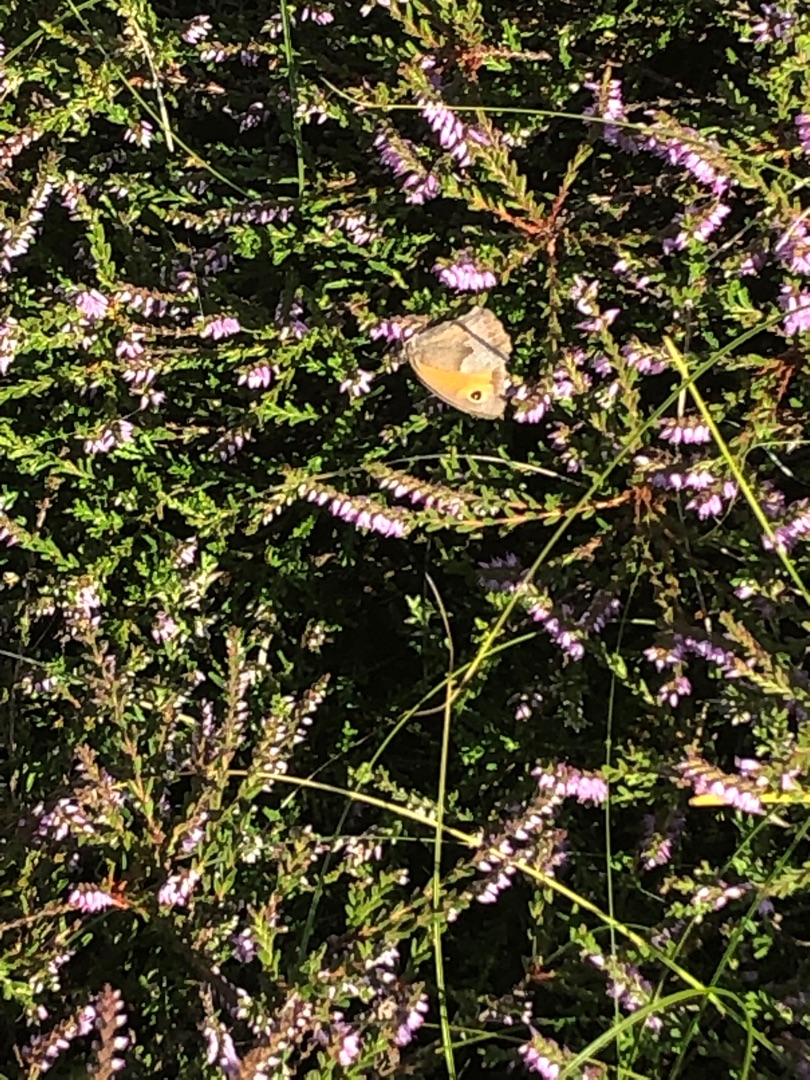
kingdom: Animalia
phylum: Arthropoda
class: Insecta
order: Lepidoptera
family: Nymphalidae
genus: Maniola
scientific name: Maniola jurtina
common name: Græsrandøje
